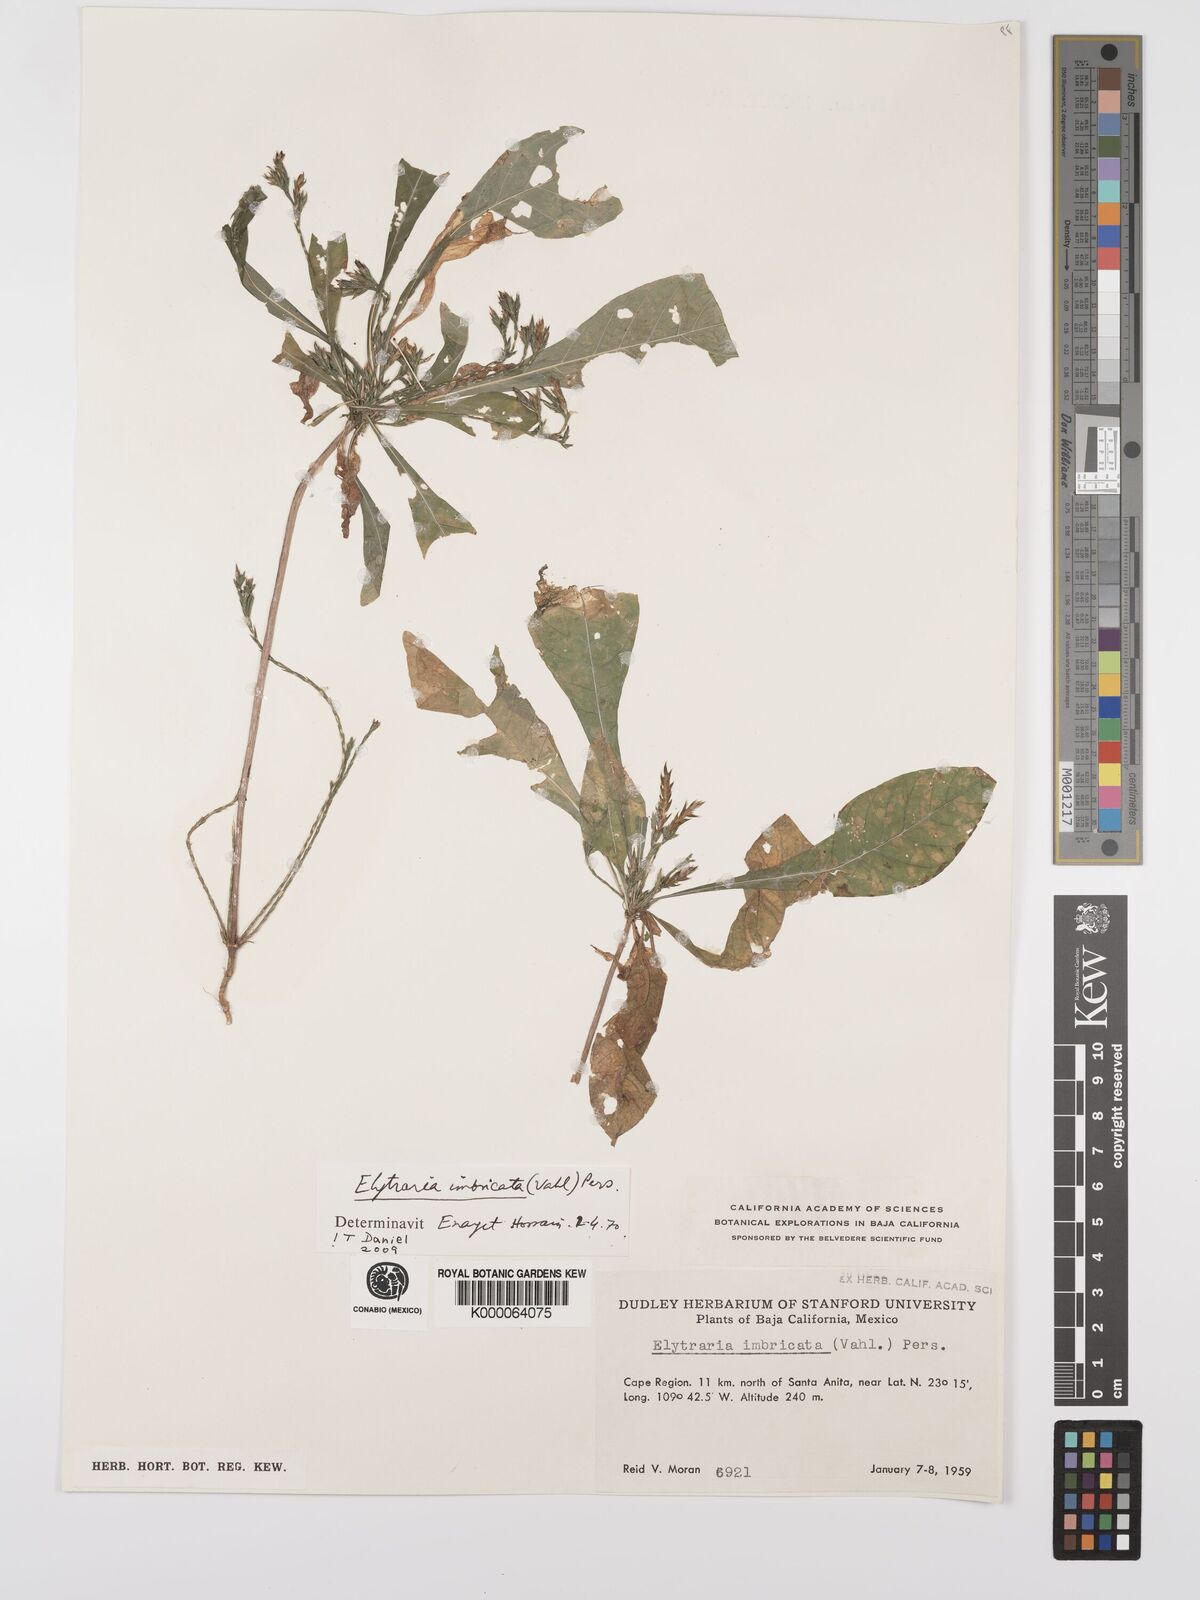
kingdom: Plantae
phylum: Tracheophyta
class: Magnoliopsida
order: Lamiales
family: Acanthaceae
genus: Elytraria
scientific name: Elytraria imbricata
